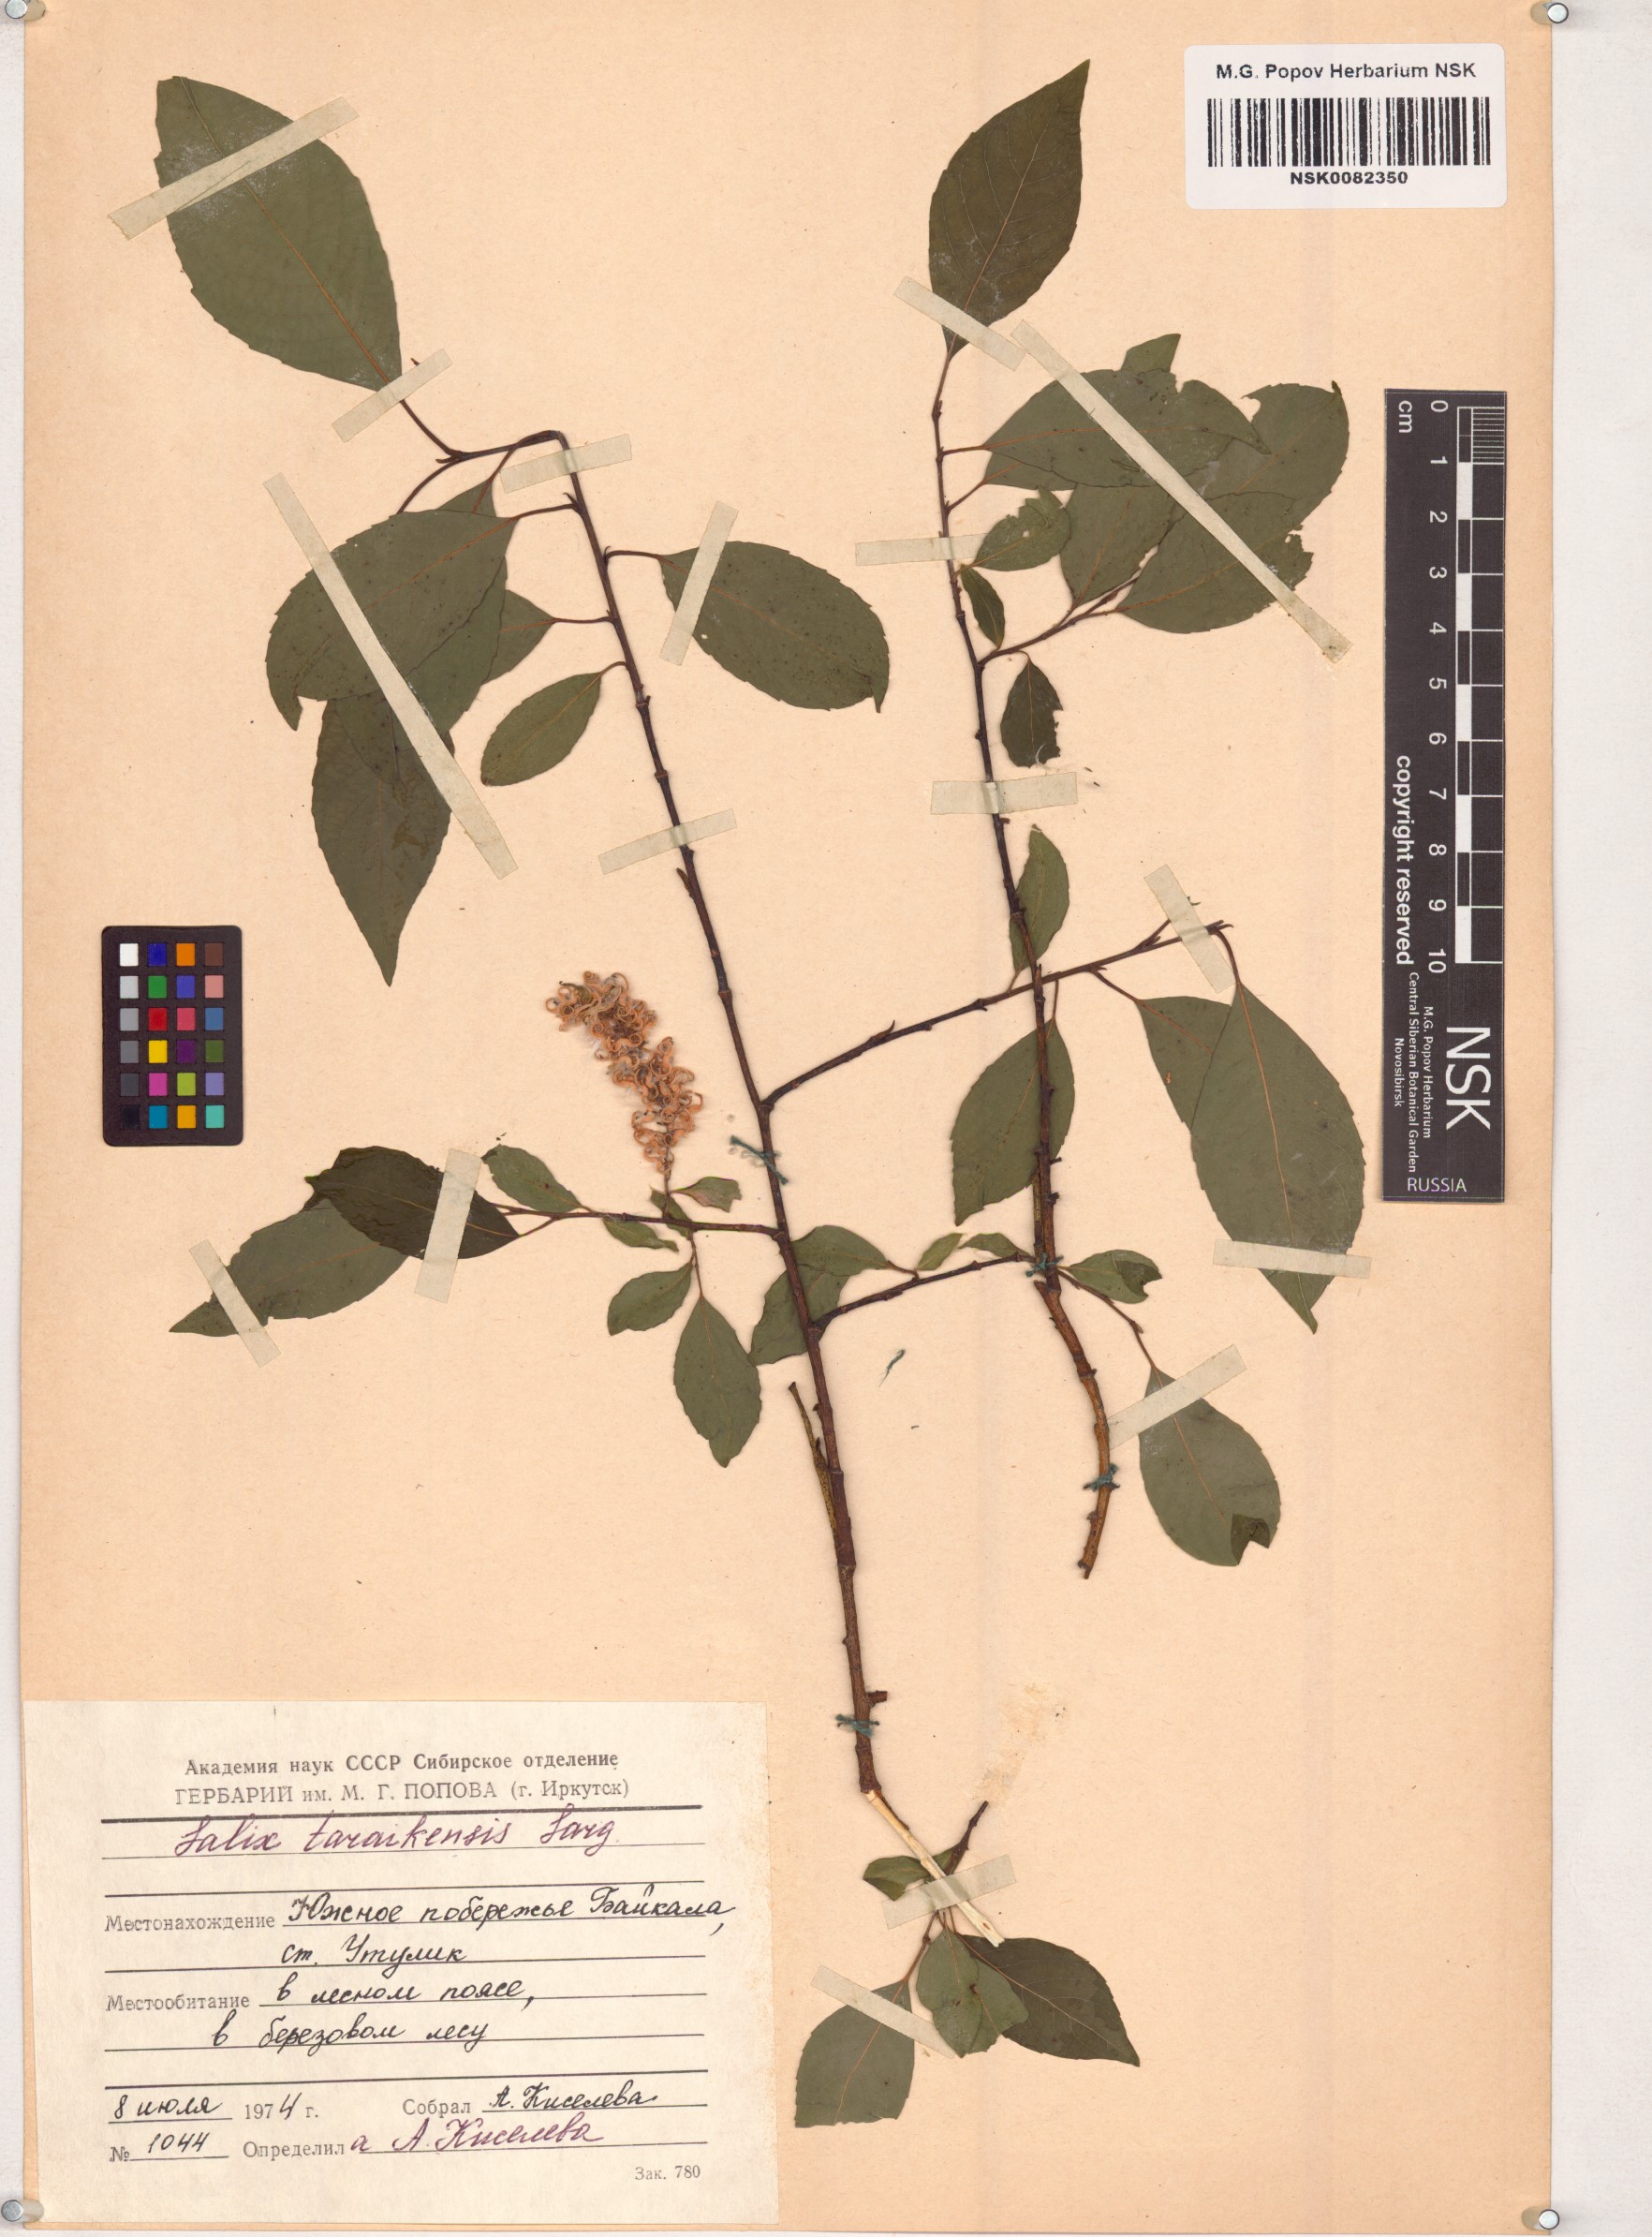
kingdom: Plantae
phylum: Tracheophyta
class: Magnoliopsida
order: Malpighiales
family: Salicaceae
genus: Salix
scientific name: Salix taraikensis
